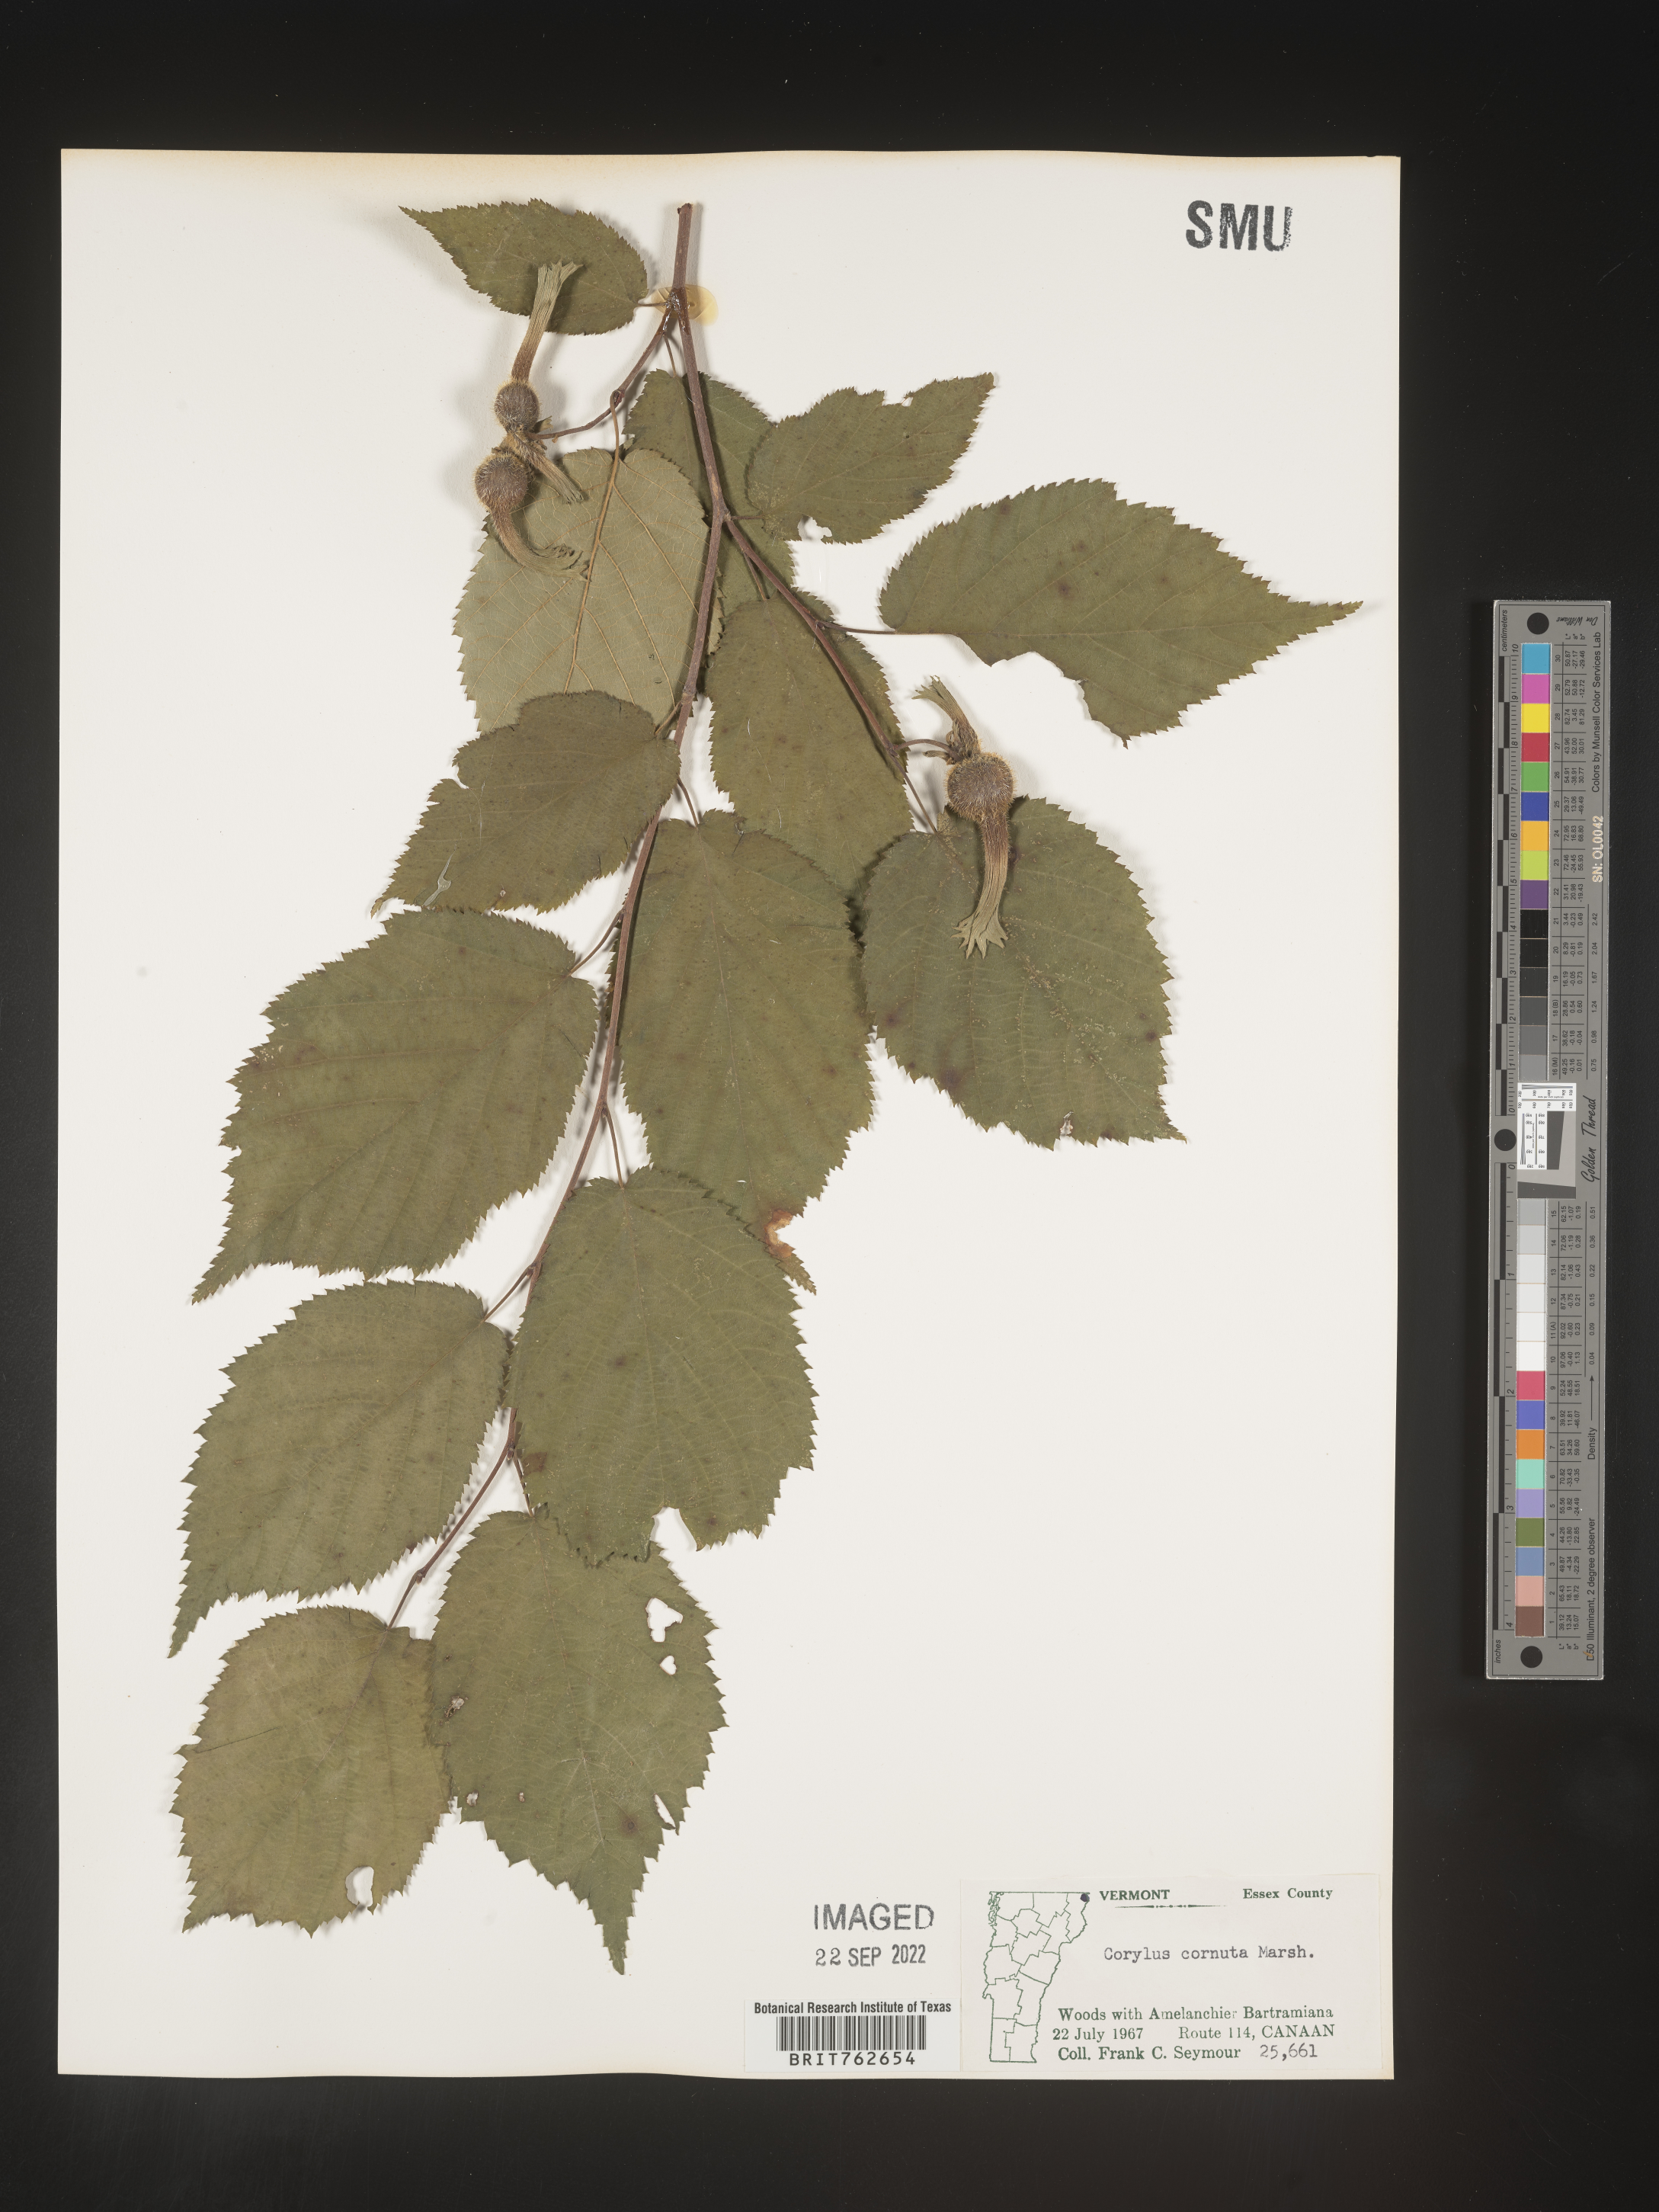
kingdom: Plantae
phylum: Tracheophyta
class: Magnoliopsida
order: Fagales
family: Betulaceae
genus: Corylus
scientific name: Corylus cornuta
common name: Beaked hazel
